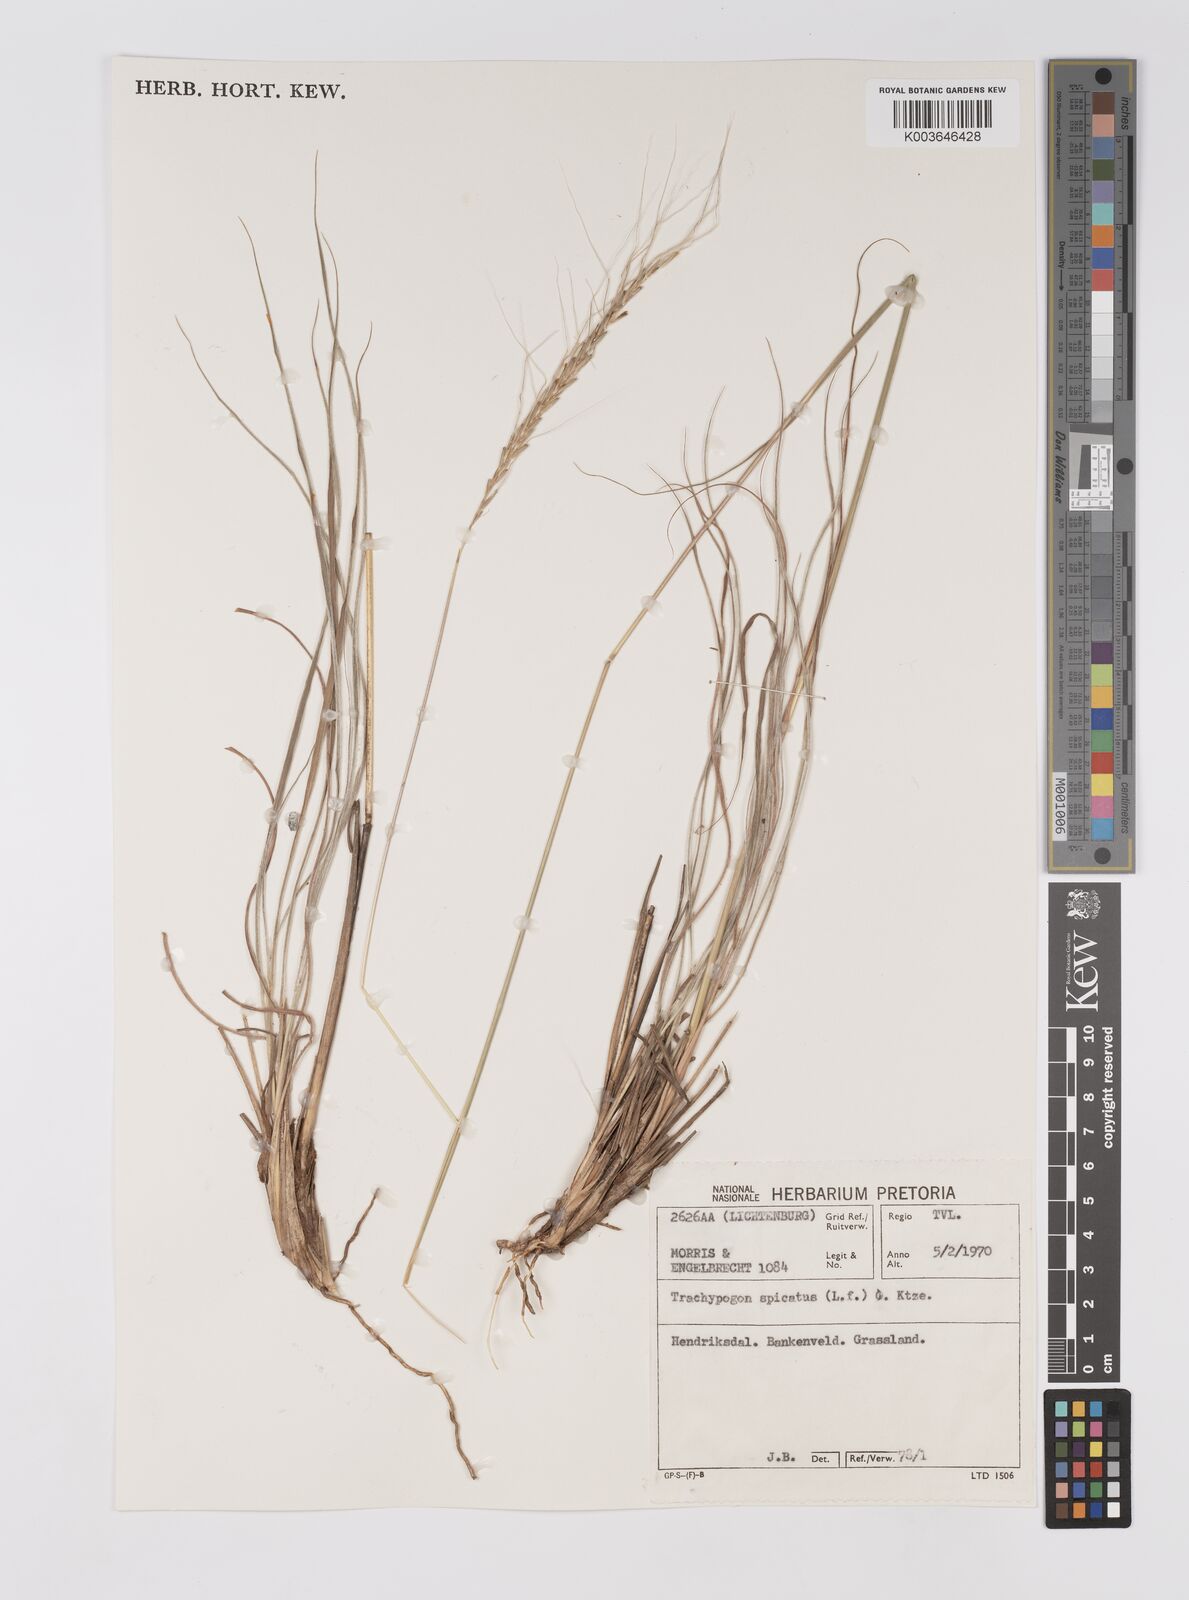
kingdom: Plantae
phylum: Tracheophyta
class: Liliopsida
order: Poales
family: Poaceae
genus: Trachypogon
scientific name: Trachypogon spicatus
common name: Crinkle-awn
